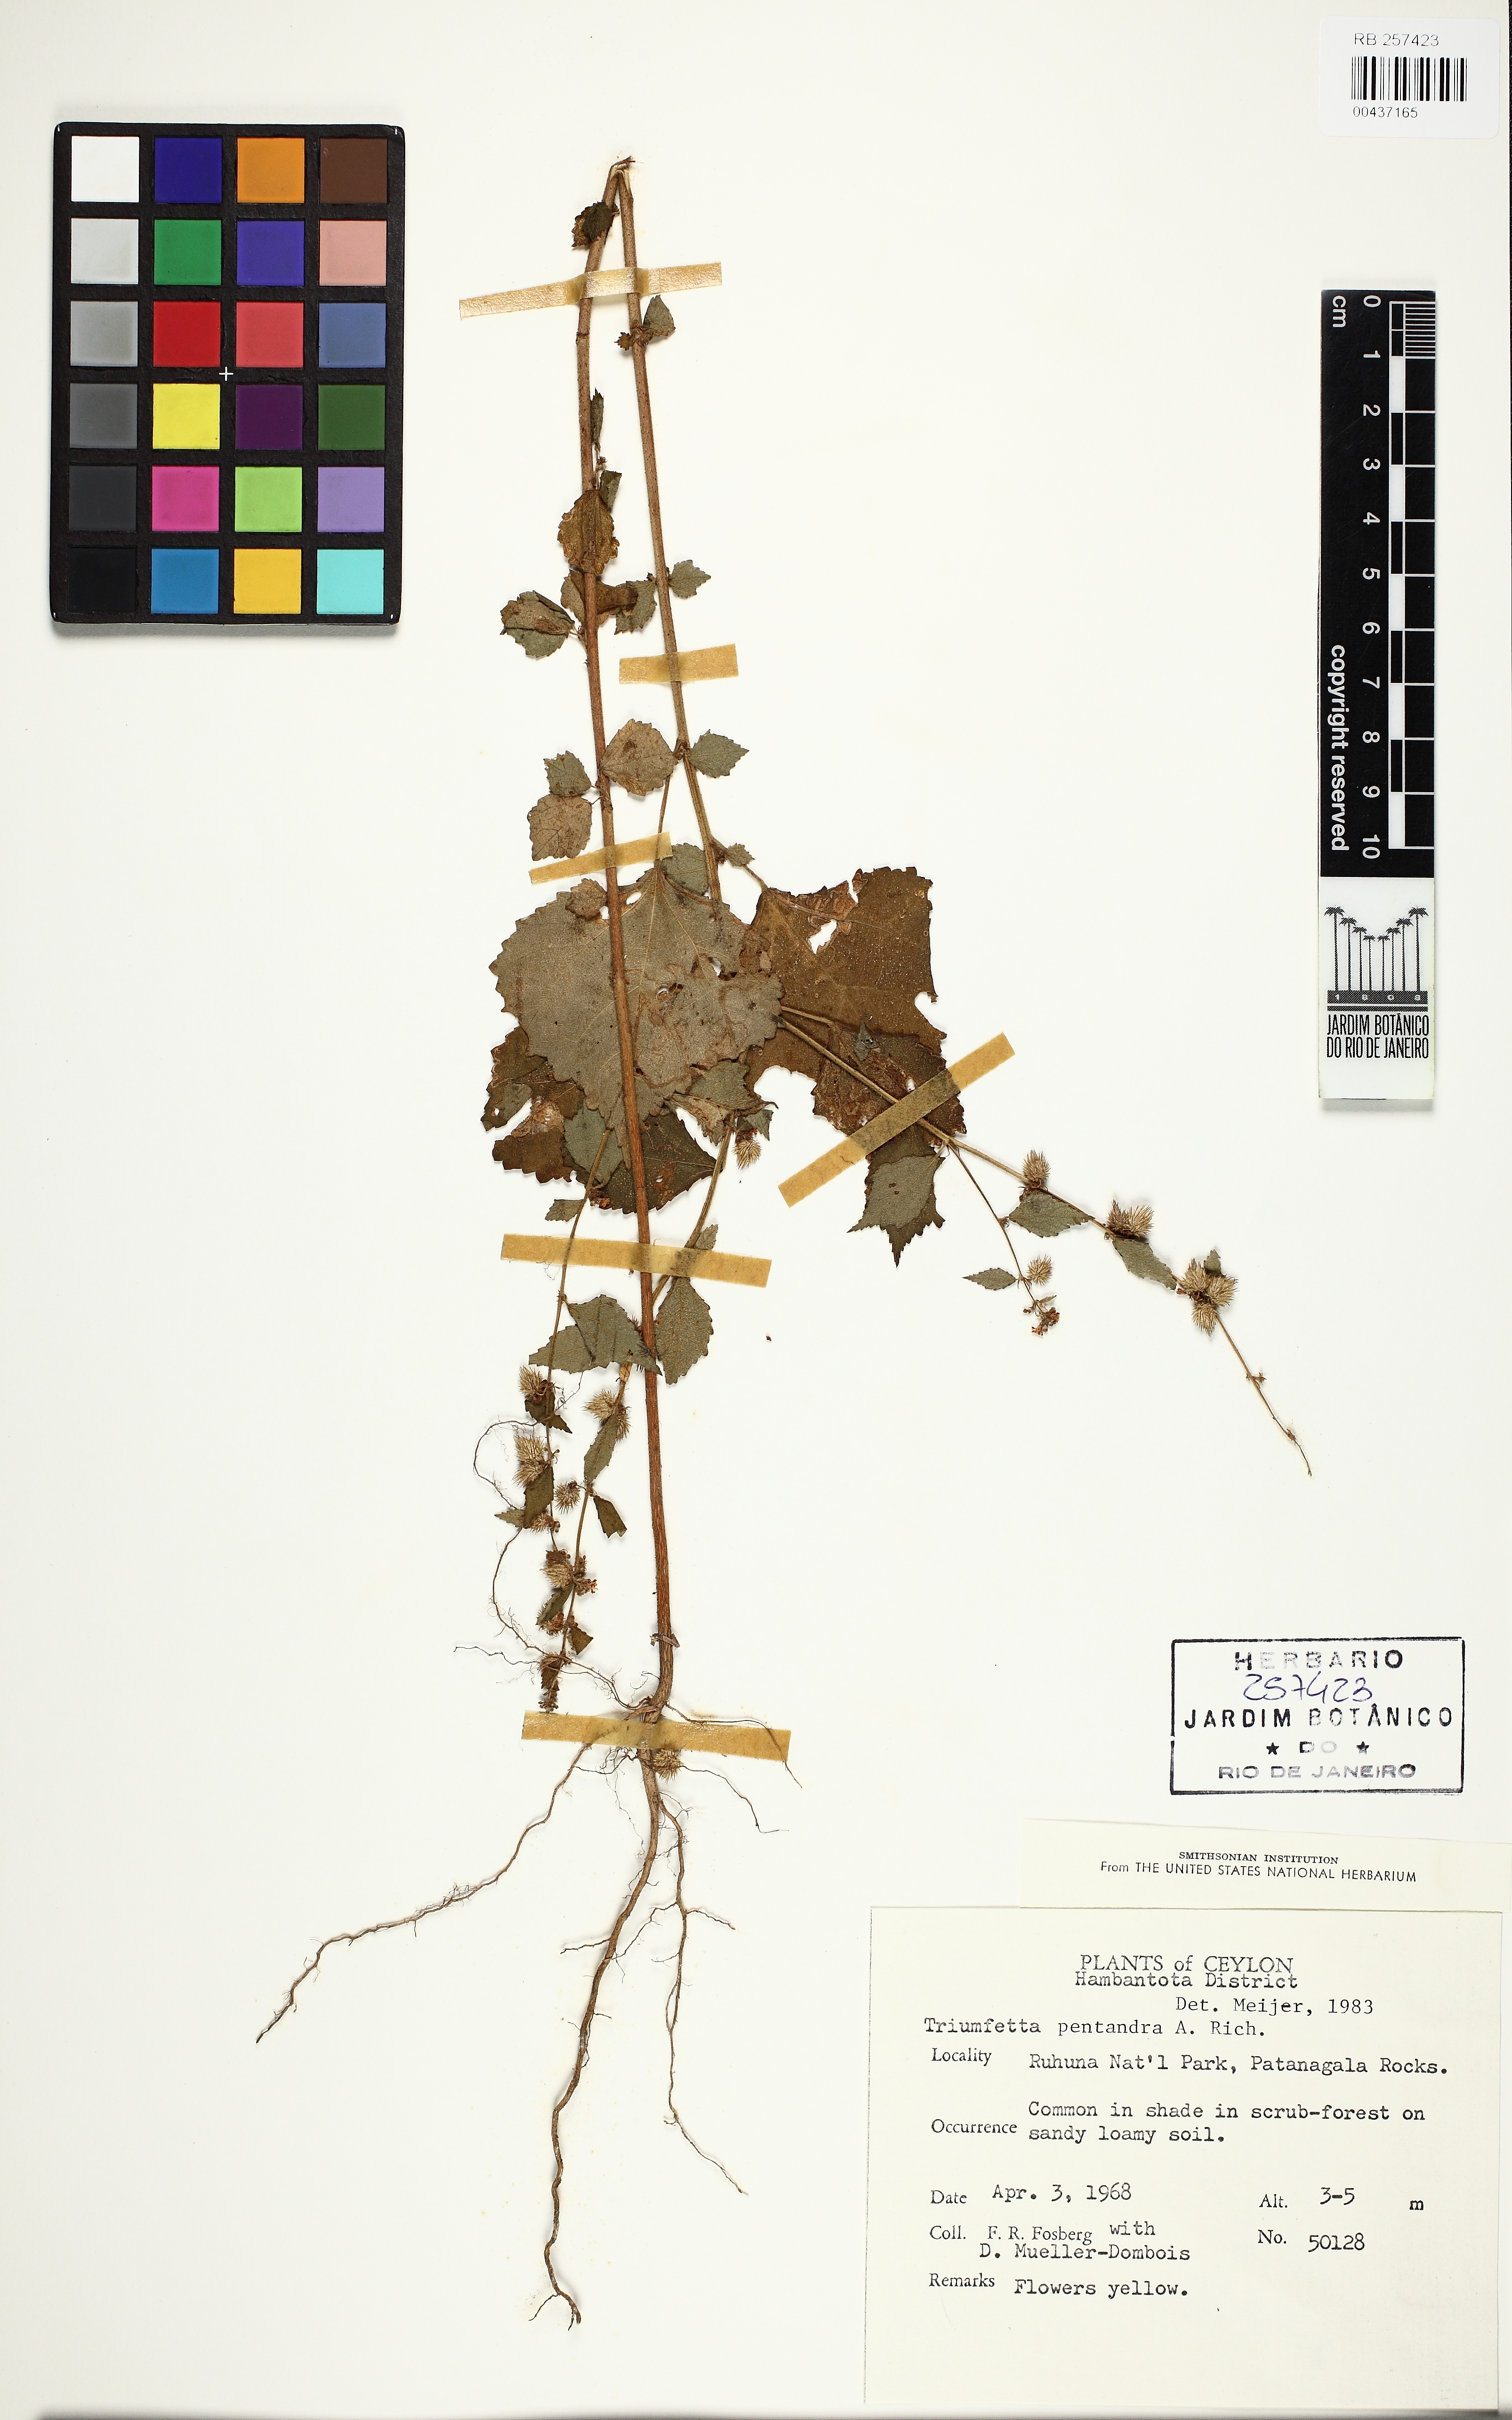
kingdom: Plantae
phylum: Tracheophyta
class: Magnoliopsida
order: Malvales
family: Malvaceae
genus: Triumfetta
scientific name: Triumfetta pentandra
